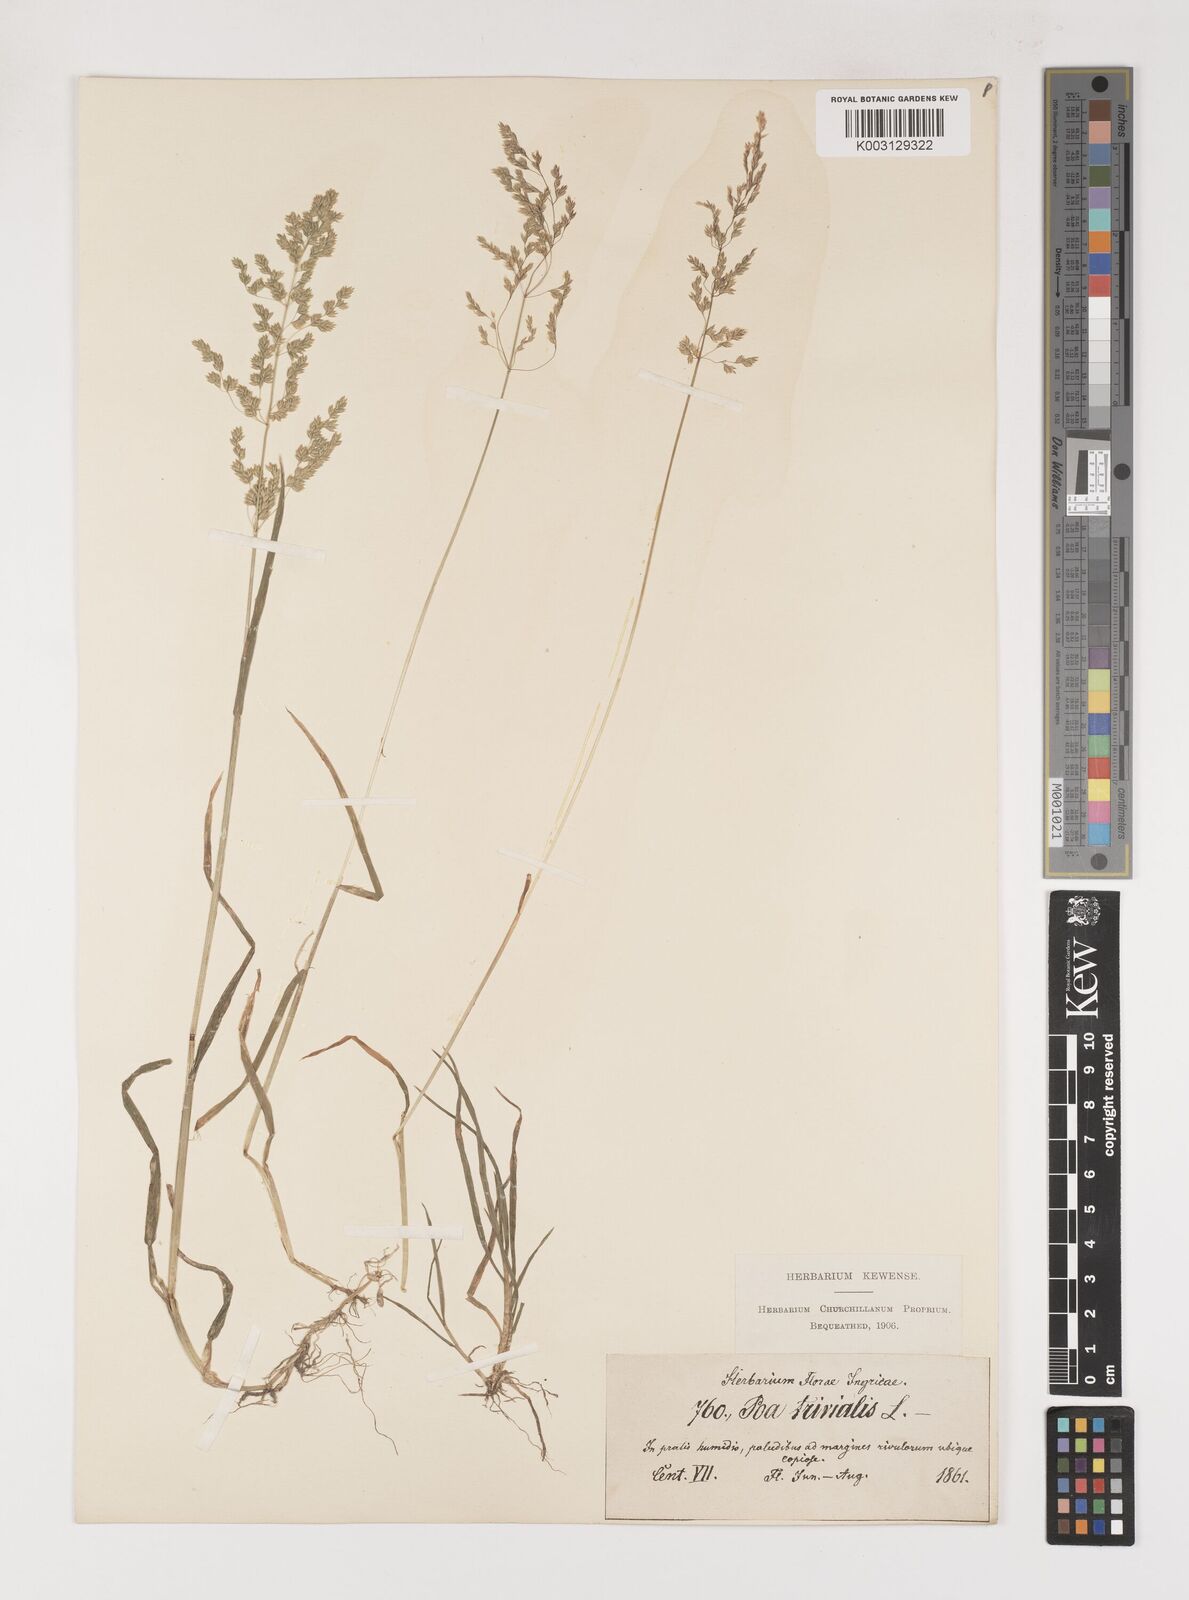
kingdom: Plantae
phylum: Tracheophyta
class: Liliopsida
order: Poales
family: Poaceae
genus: Poa
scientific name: Poa trivialis
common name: Rough bluegrass
